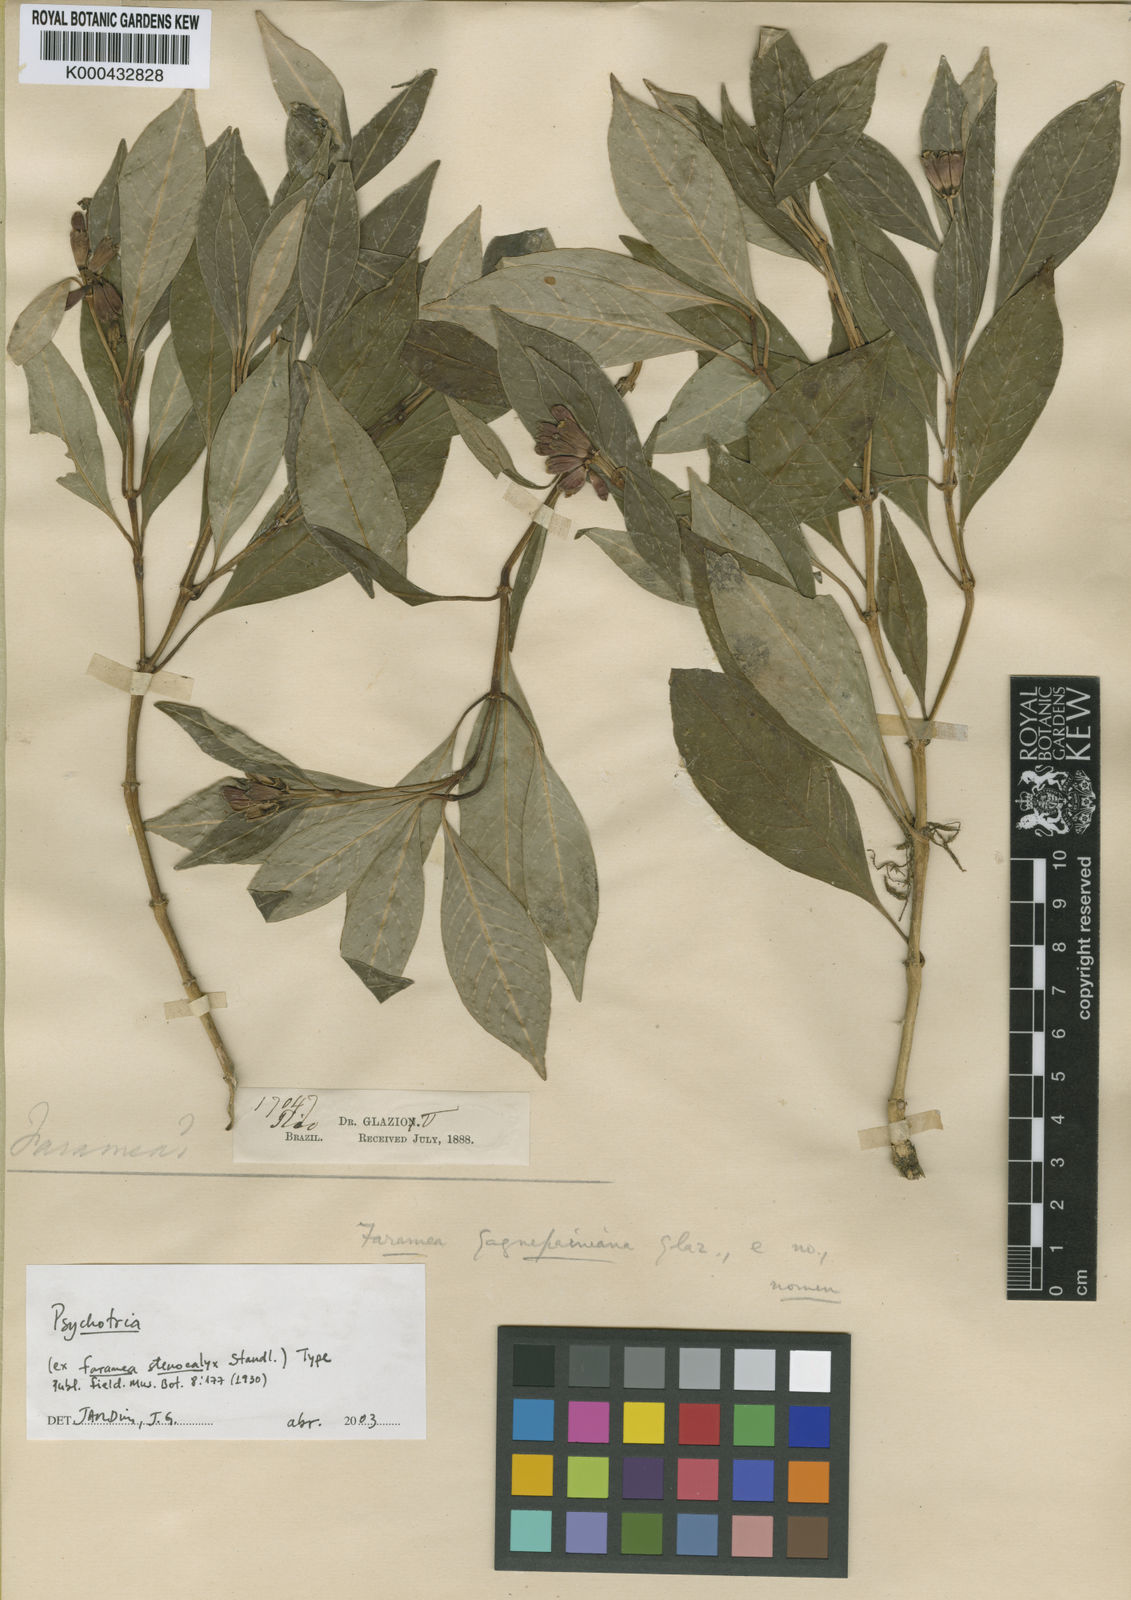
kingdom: Plantae
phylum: Tracheophyta
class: Magnoliopsida
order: Gentianales
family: Rubiaceae
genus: Psychotria
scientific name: Psychotria ulei
